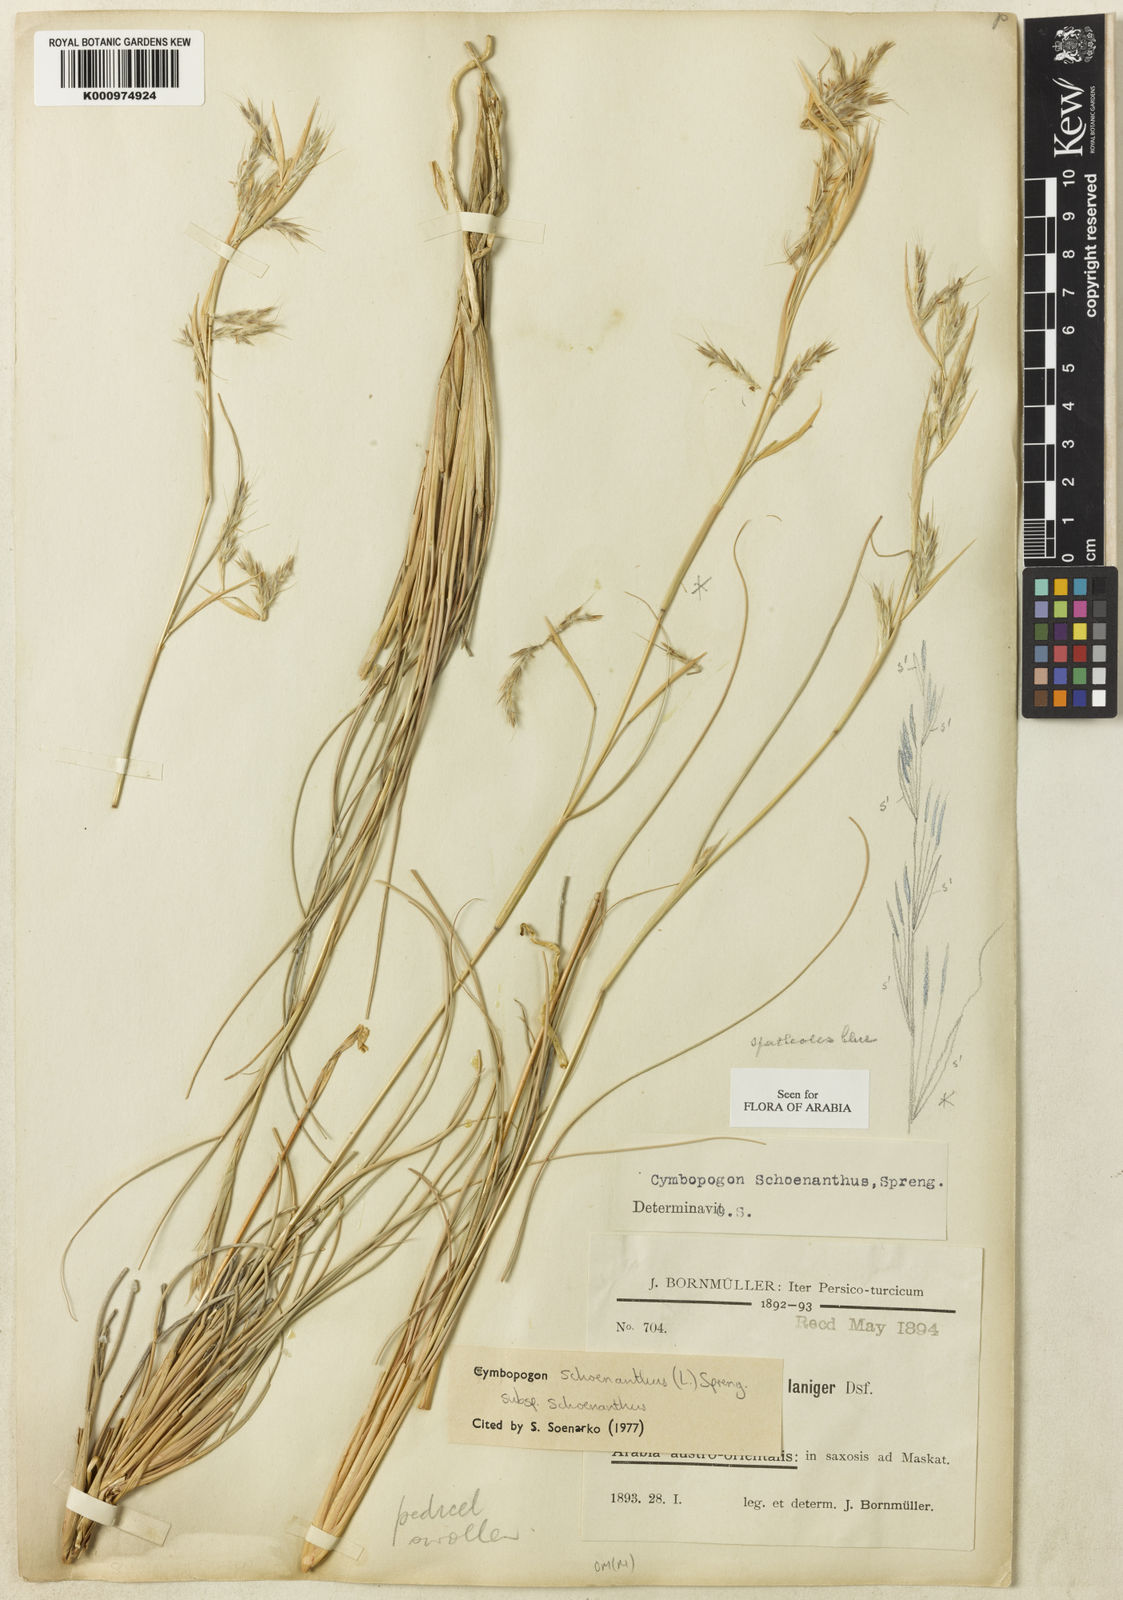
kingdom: Plantae
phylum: Tracheophyta
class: Liliopsida
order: Poales
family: Poaceae
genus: Cymbopogon
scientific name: Cymbopogon schoenanthus
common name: Geranium grass
